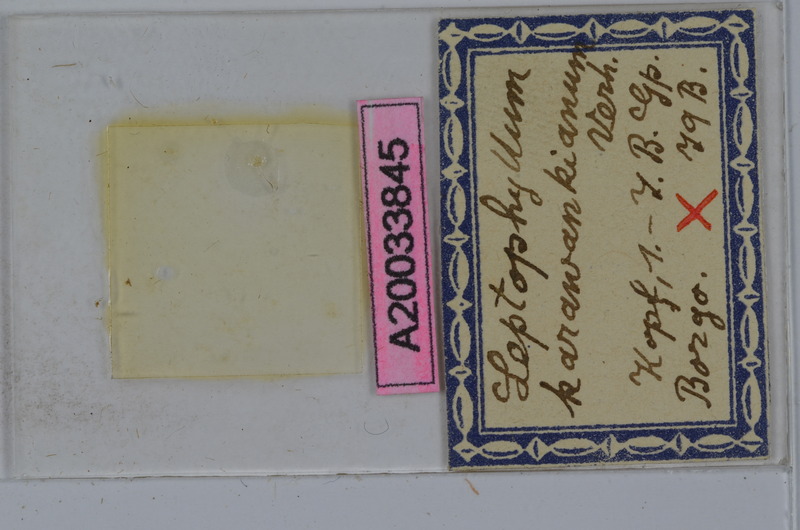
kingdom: Animalia
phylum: Arthropoda
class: Diplopoda
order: Julida
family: Julidae
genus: Enantiulus
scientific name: Enantiulus karawankianus
